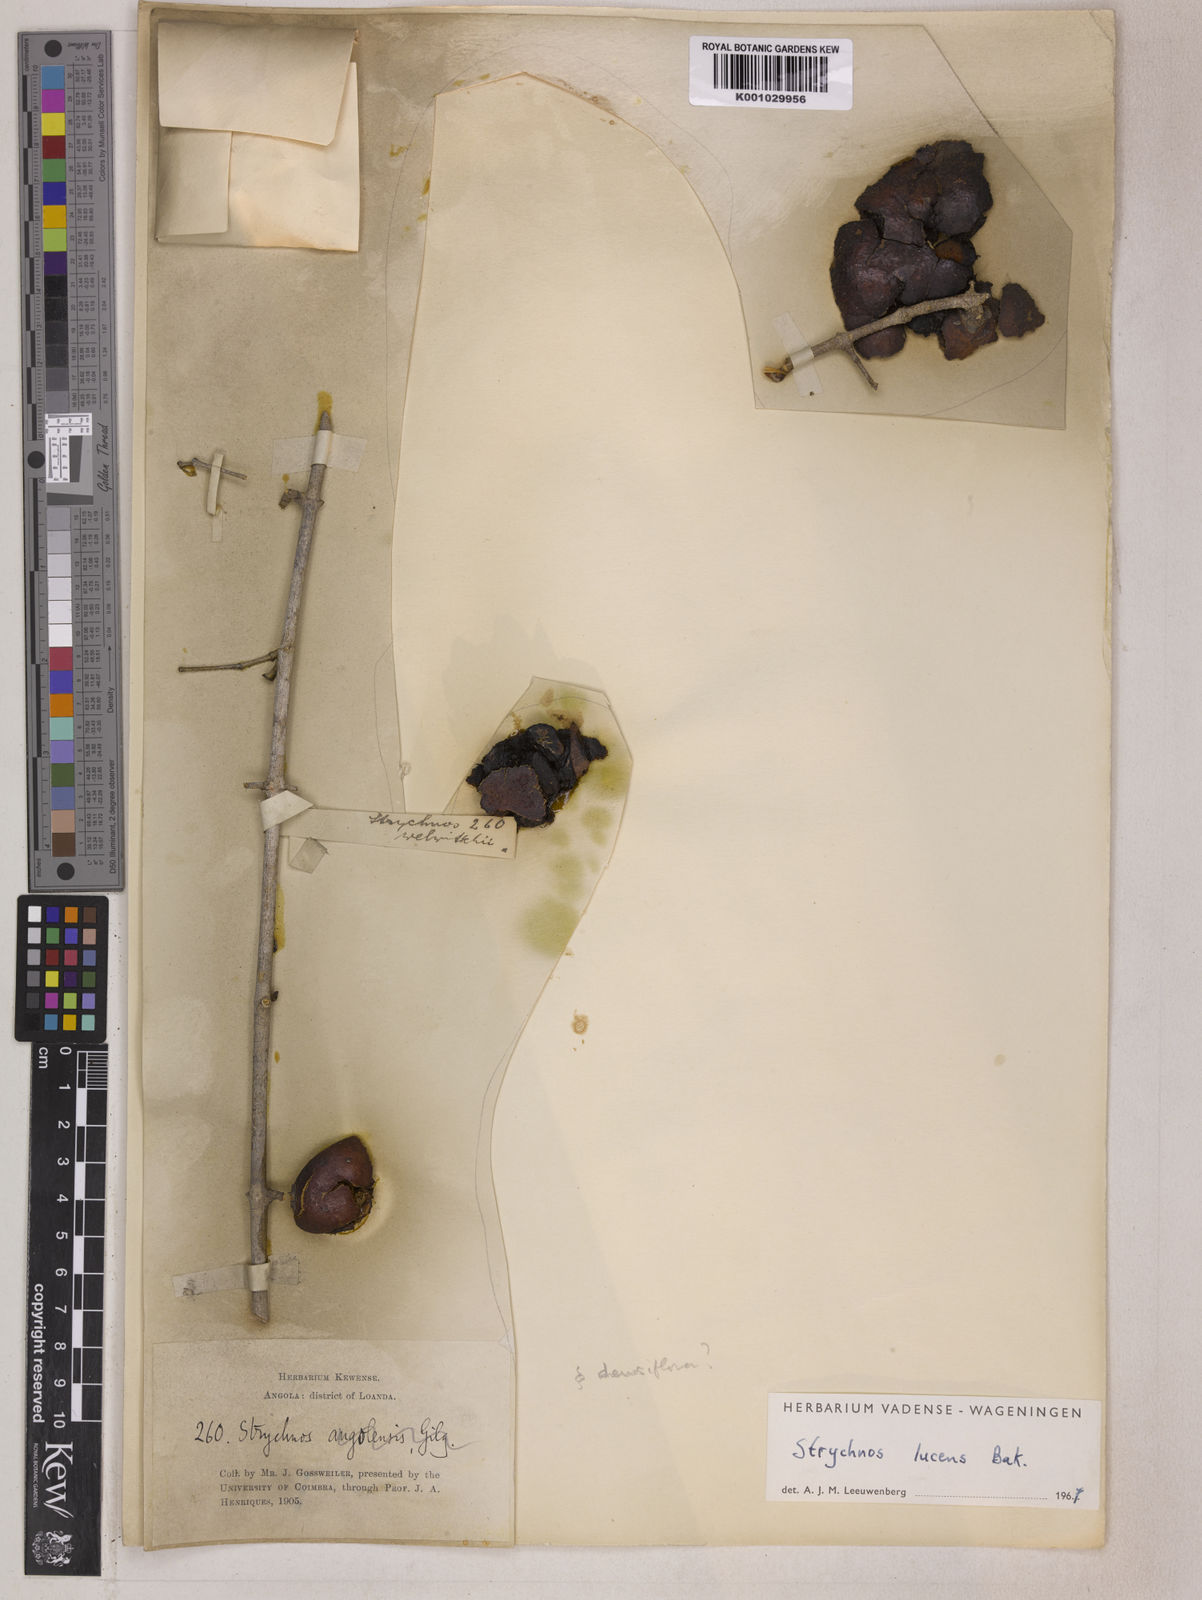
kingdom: Plantae
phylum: Tracheophyta
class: Magnoliopsida
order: Gentianales
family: Loganiaceae
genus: Strychnos
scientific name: Strychnos lucens
